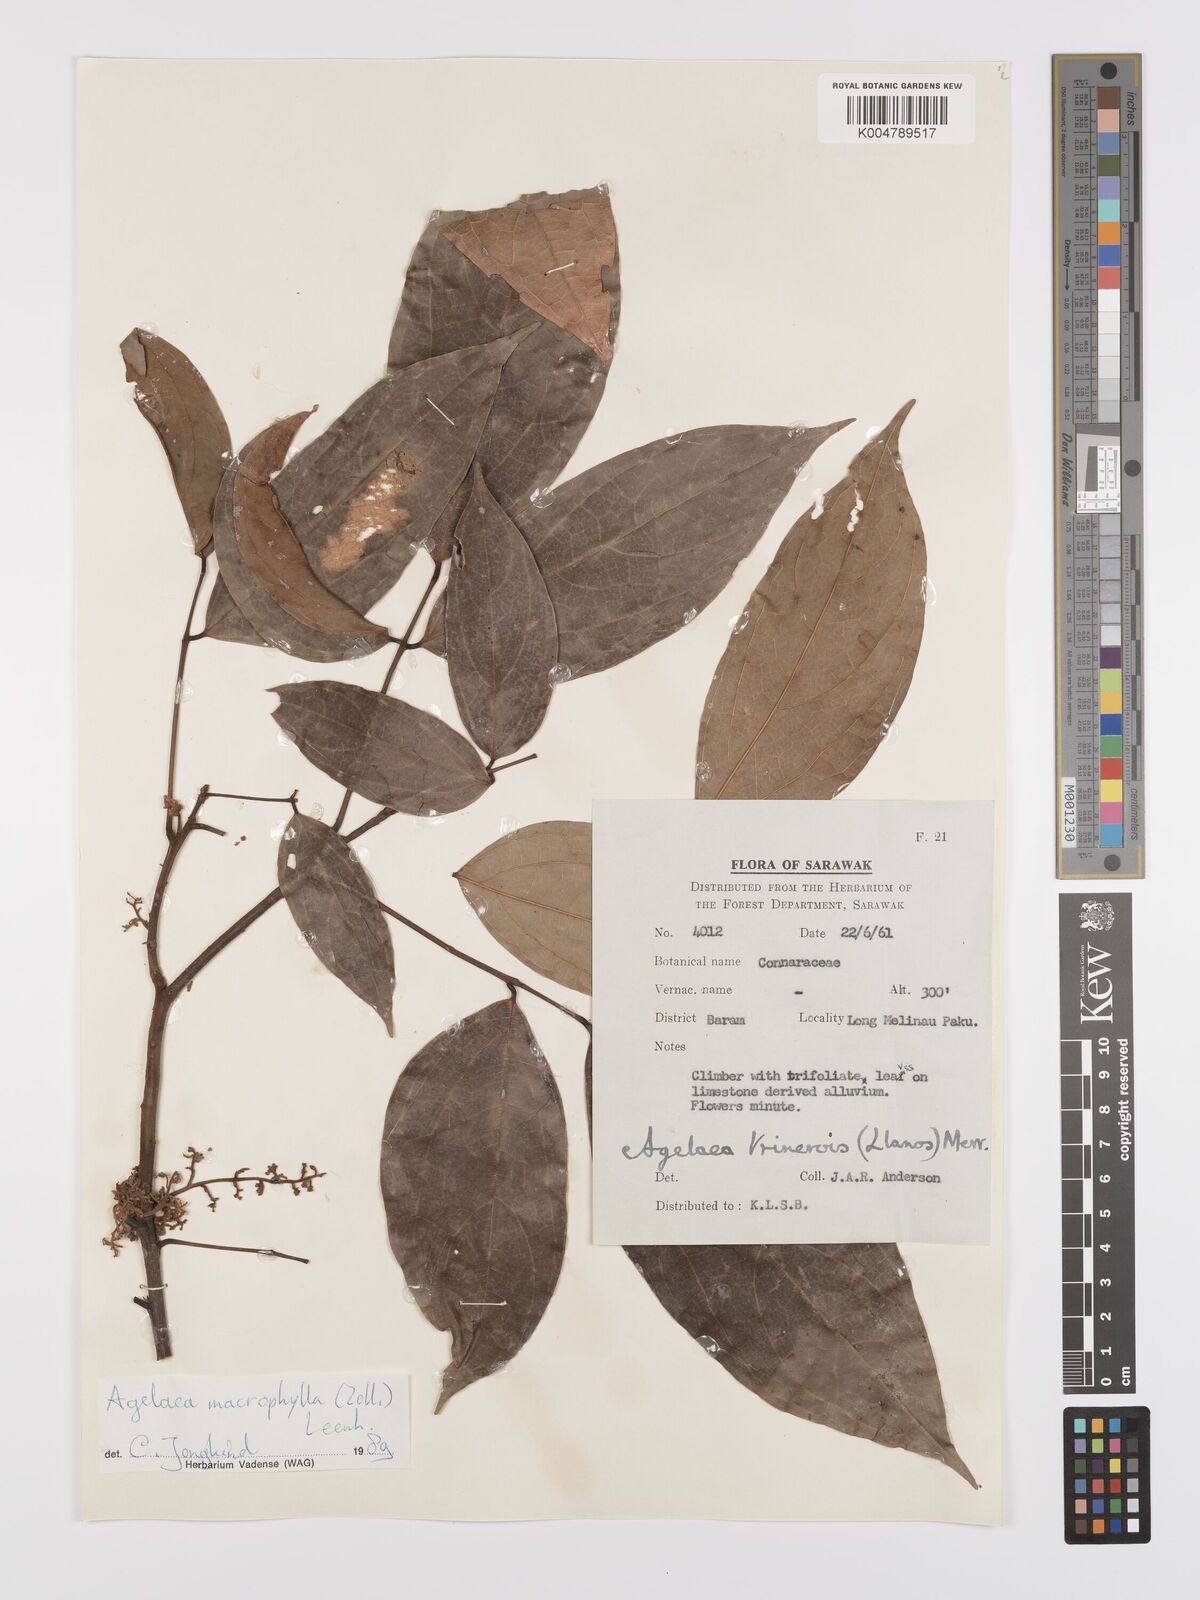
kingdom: Plantae
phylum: Tracheophyta
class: Magnoliopsida
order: Oxalidales
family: Connaraceae
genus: Agelaea
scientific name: Agelaea trinervis
